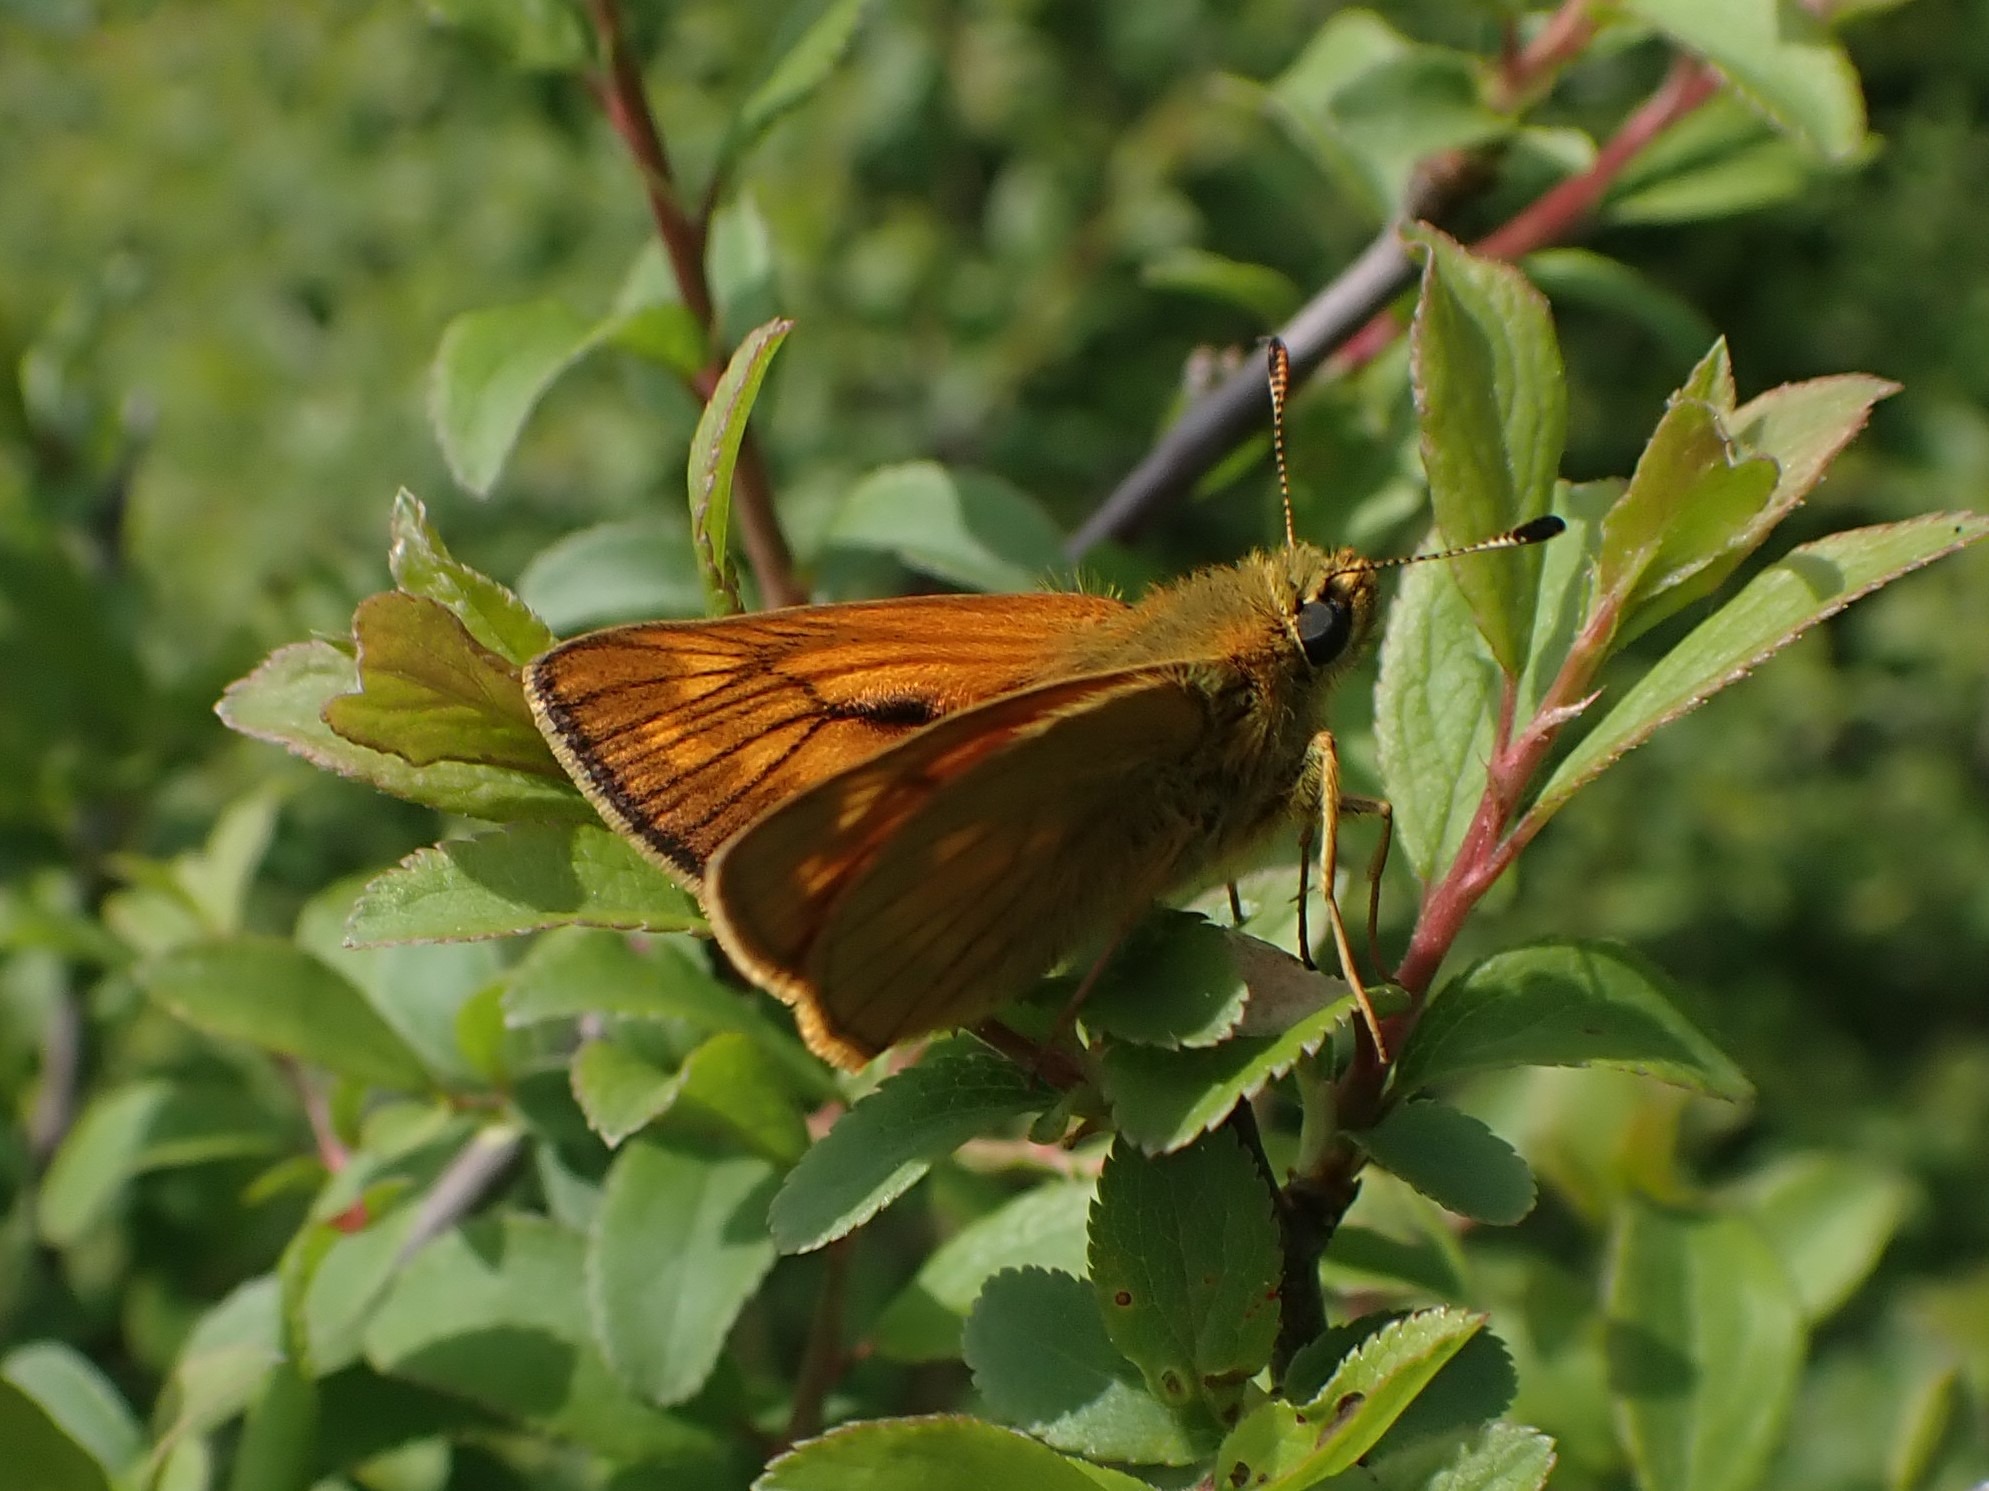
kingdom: Animalia
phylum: Arthropoda
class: Insecta
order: Lepidoptera
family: Hesperiidae
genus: Ochlodes
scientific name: Ochlodes venata
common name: Stor bredpande
